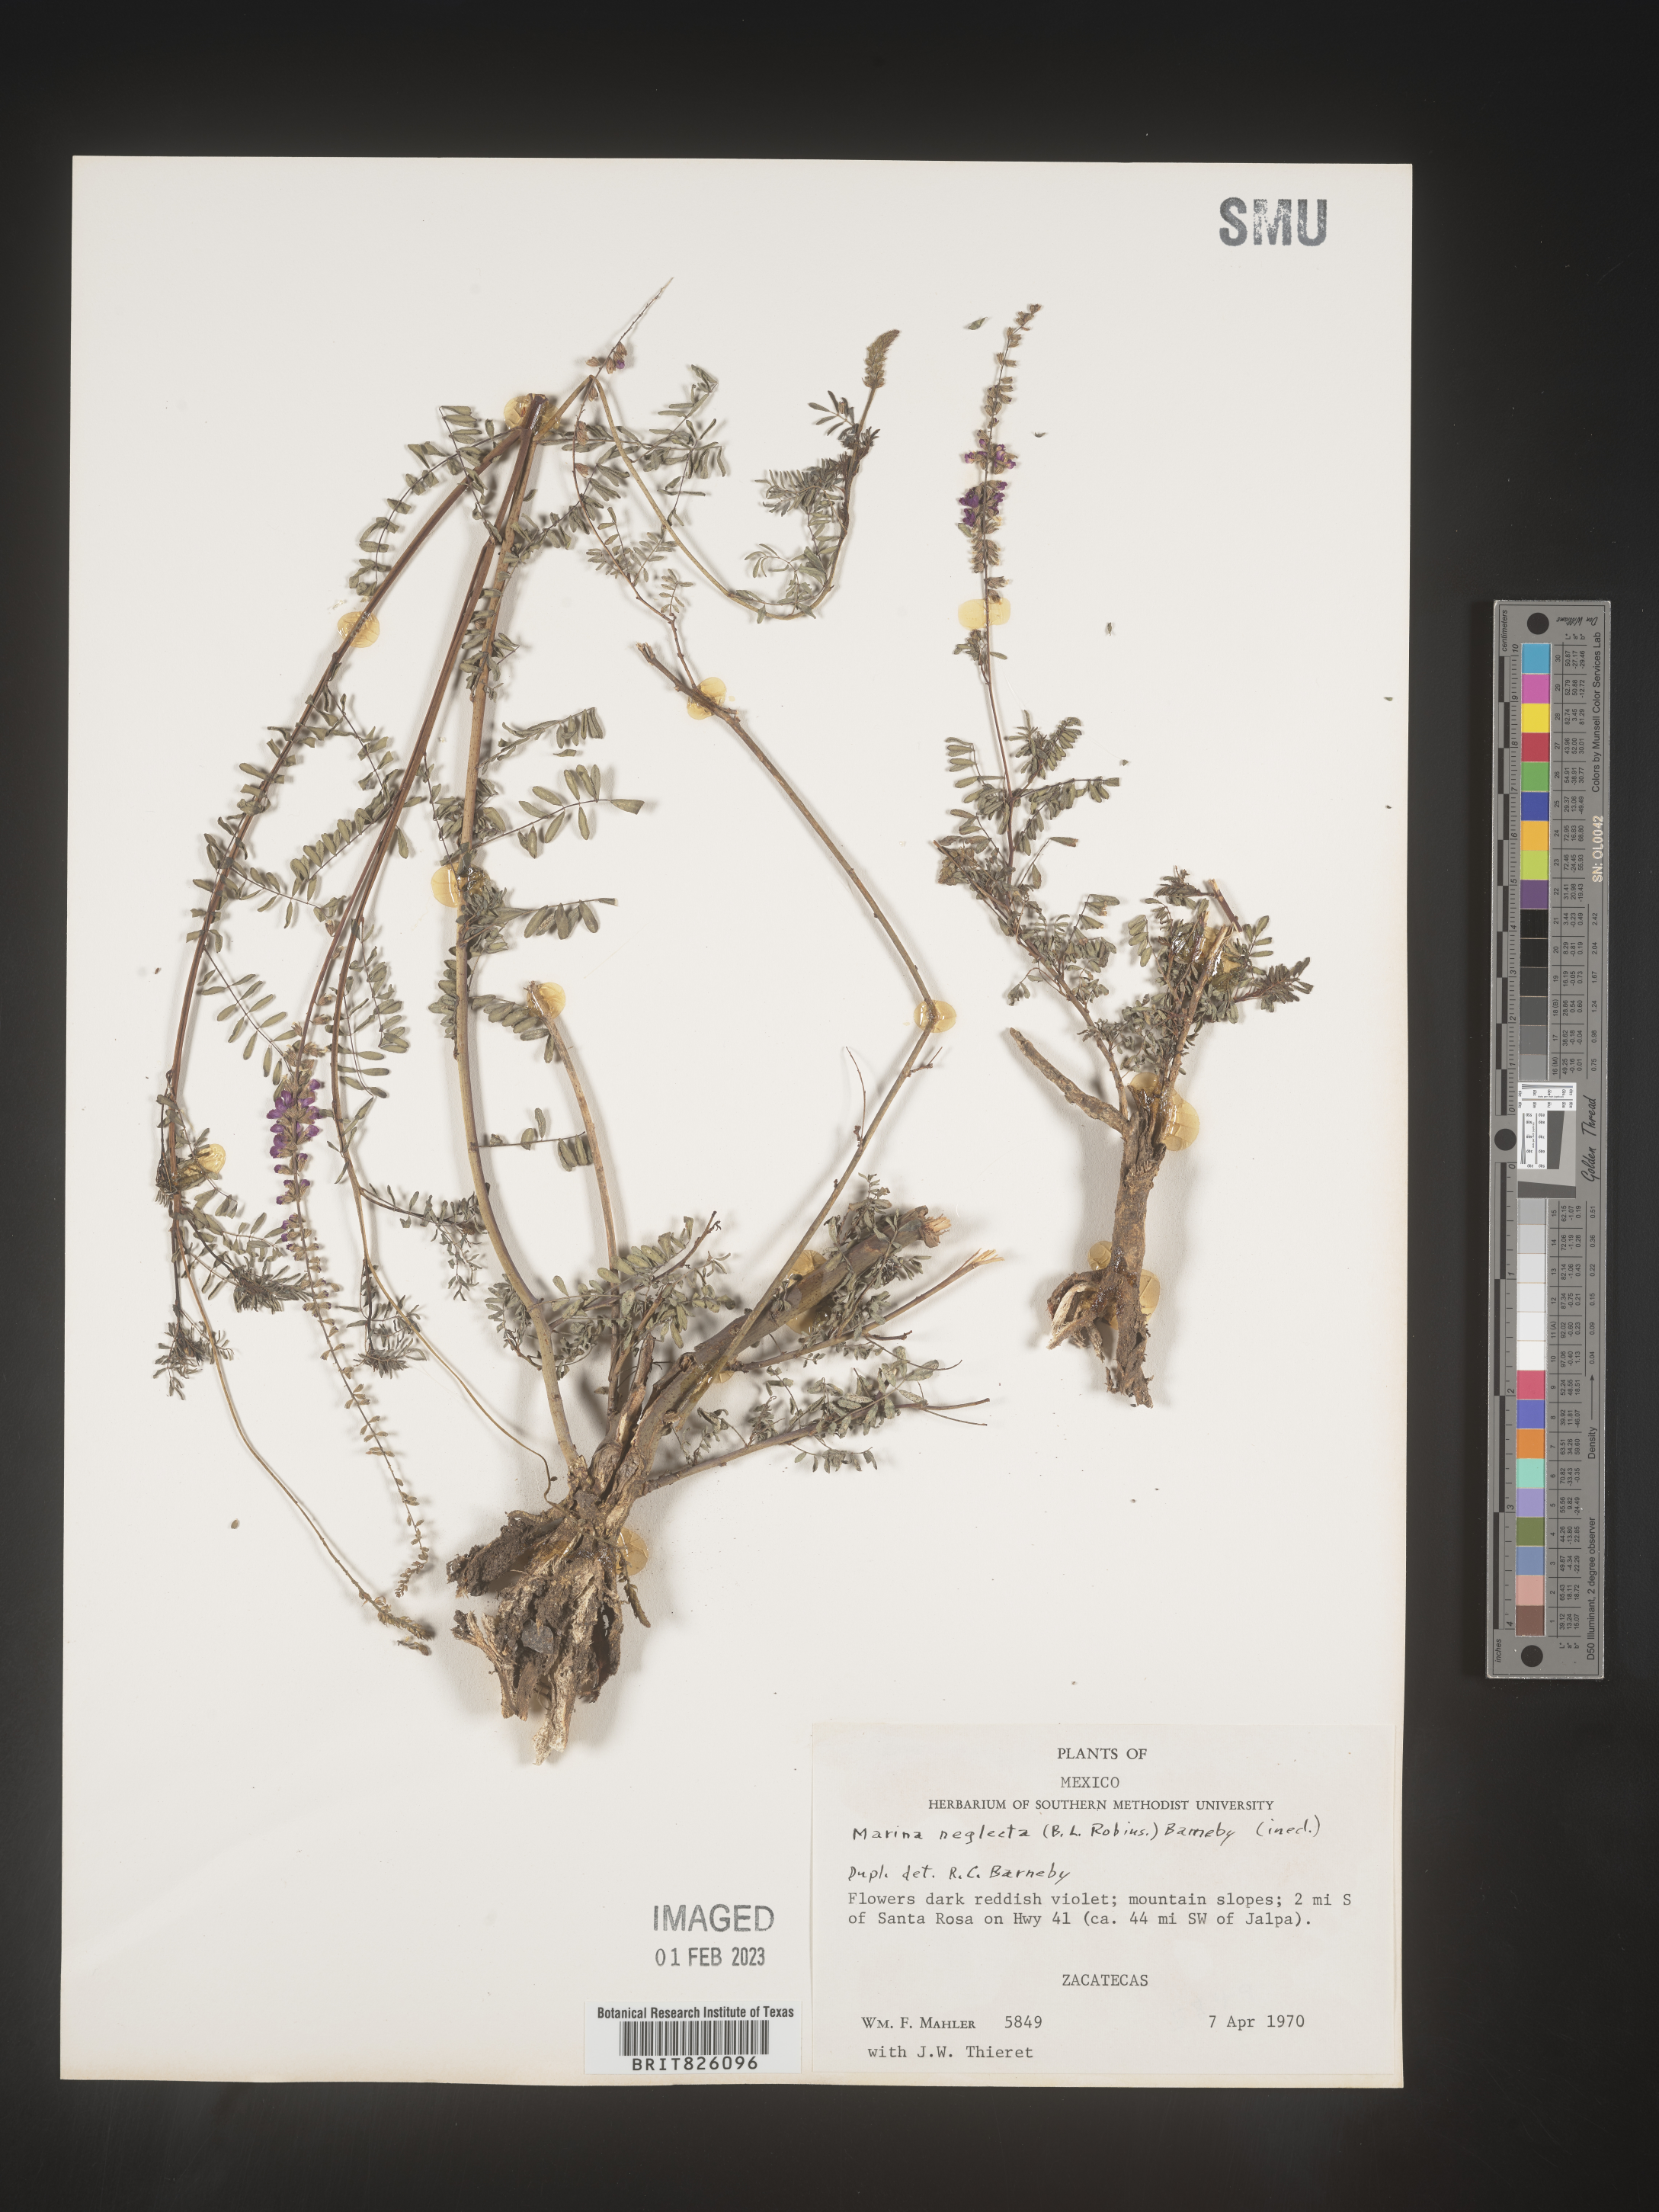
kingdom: Plantae
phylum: Tracheophyta
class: Magnoliopsida
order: Fabales
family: Fabaceae
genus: Marina
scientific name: Marina
